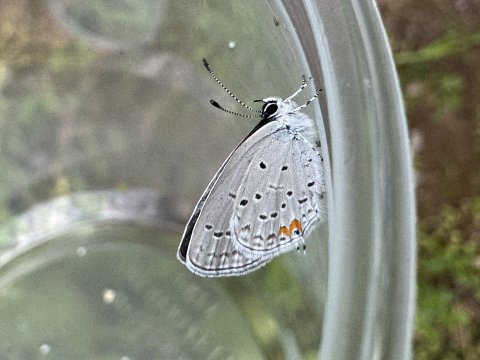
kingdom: Animalia
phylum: Arthropoda
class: Insecta
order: Lepidoptera
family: Lycaenidae
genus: Elkalyce
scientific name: Elkalyce comyntas
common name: Eastern Tailed-Blue
